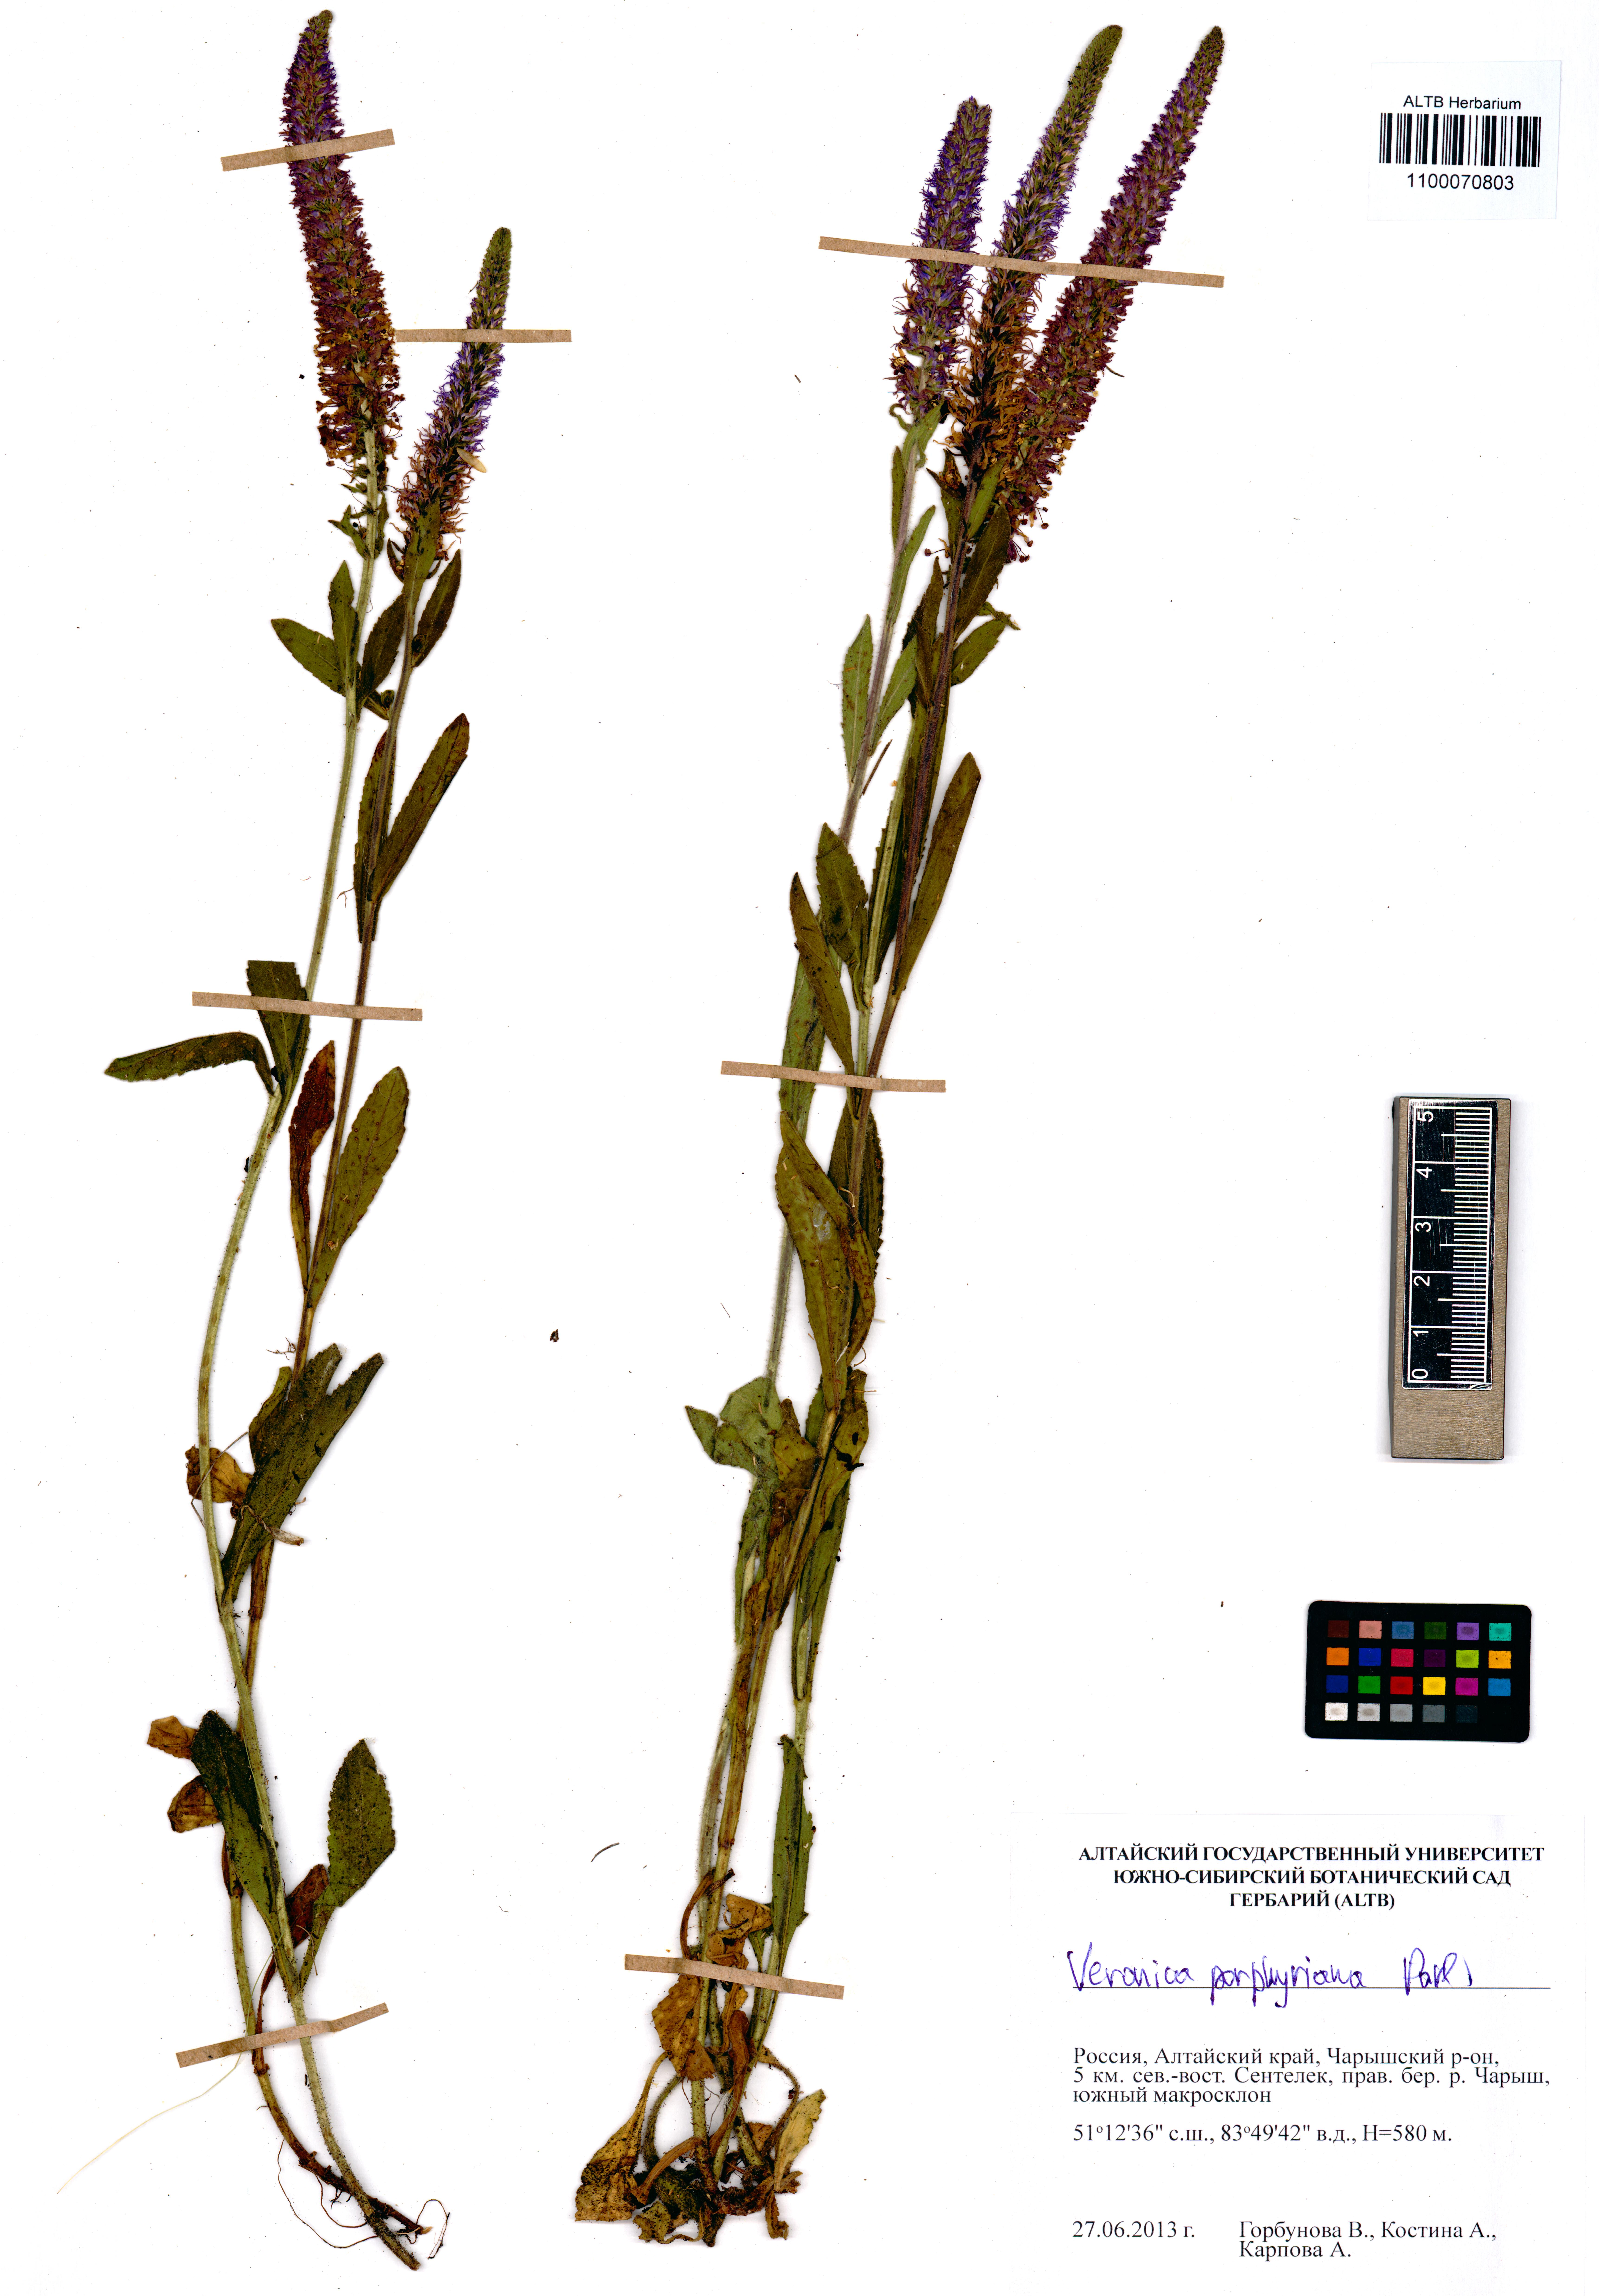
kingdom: Plantae
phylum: Tracheophyta
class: Magnoliopsida
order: Lamiales
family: Plantaginaceae
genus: Veronica
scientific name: Veronica porphyriana
